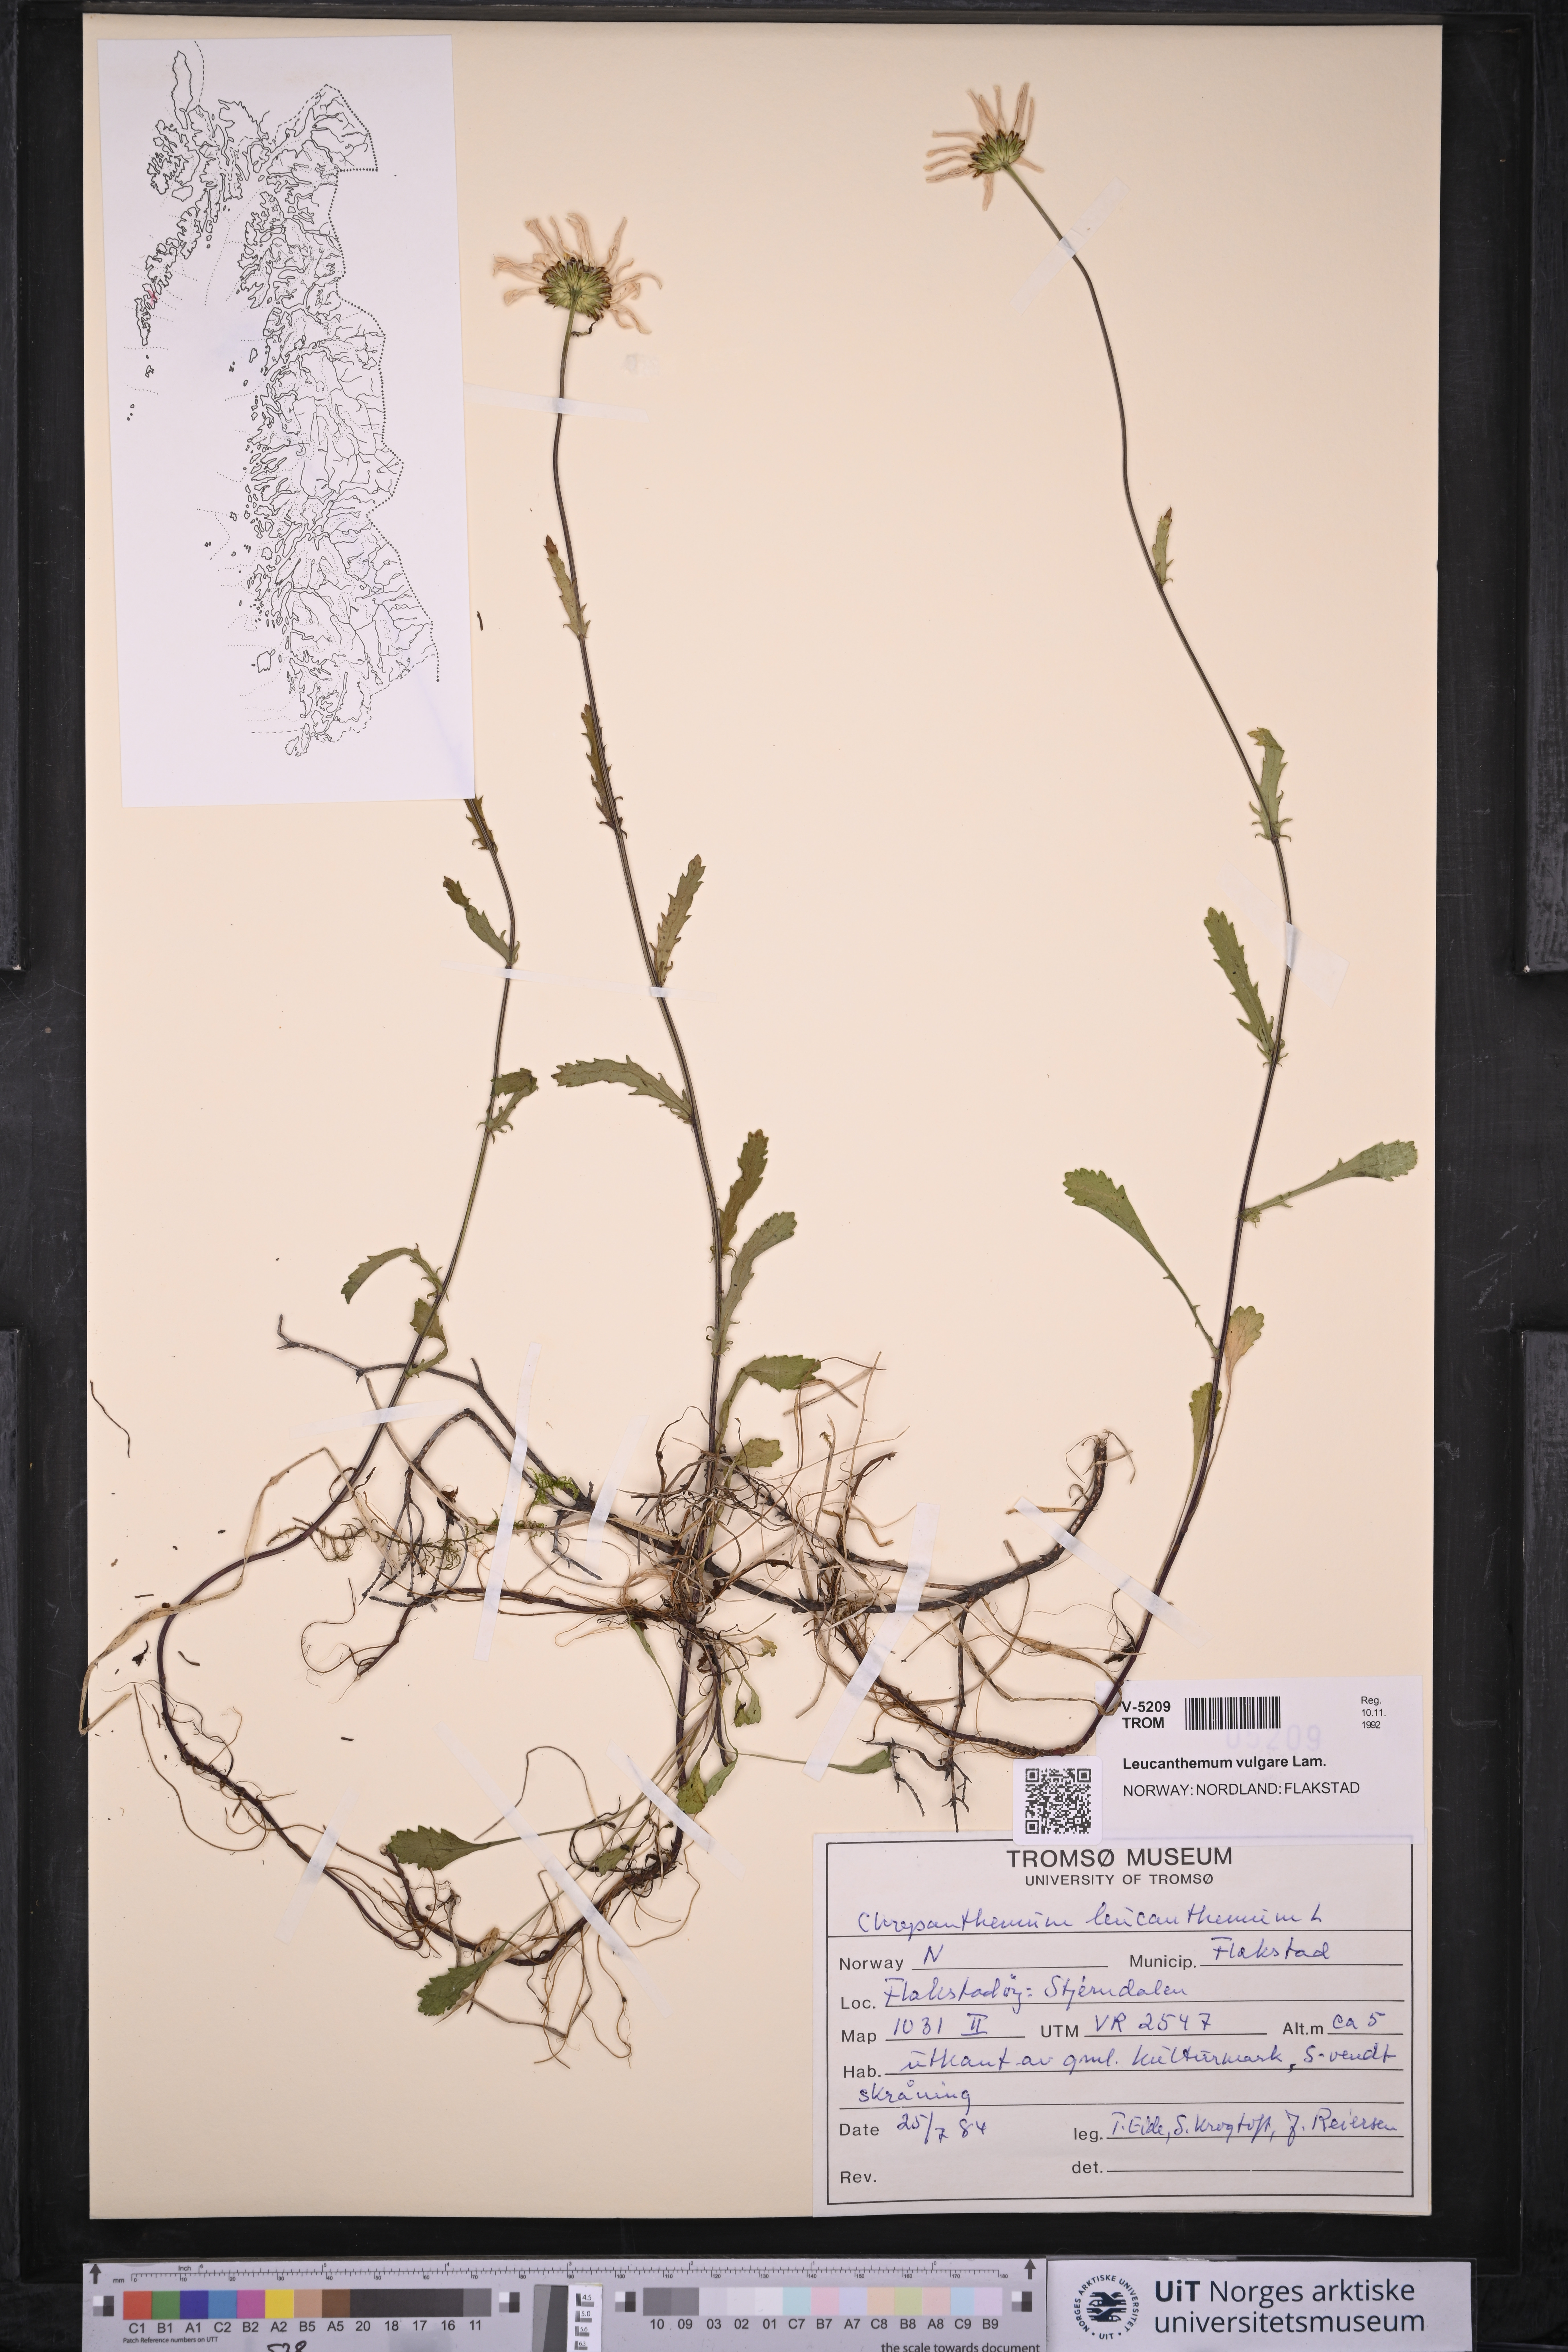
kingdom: Plantae
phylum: Tracheophyta
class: Magnoliopsida
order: Asterales
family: Asteraceae
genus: Leucanthemum
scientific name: Leucanthemum vulgare
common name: Oxeye daisy
